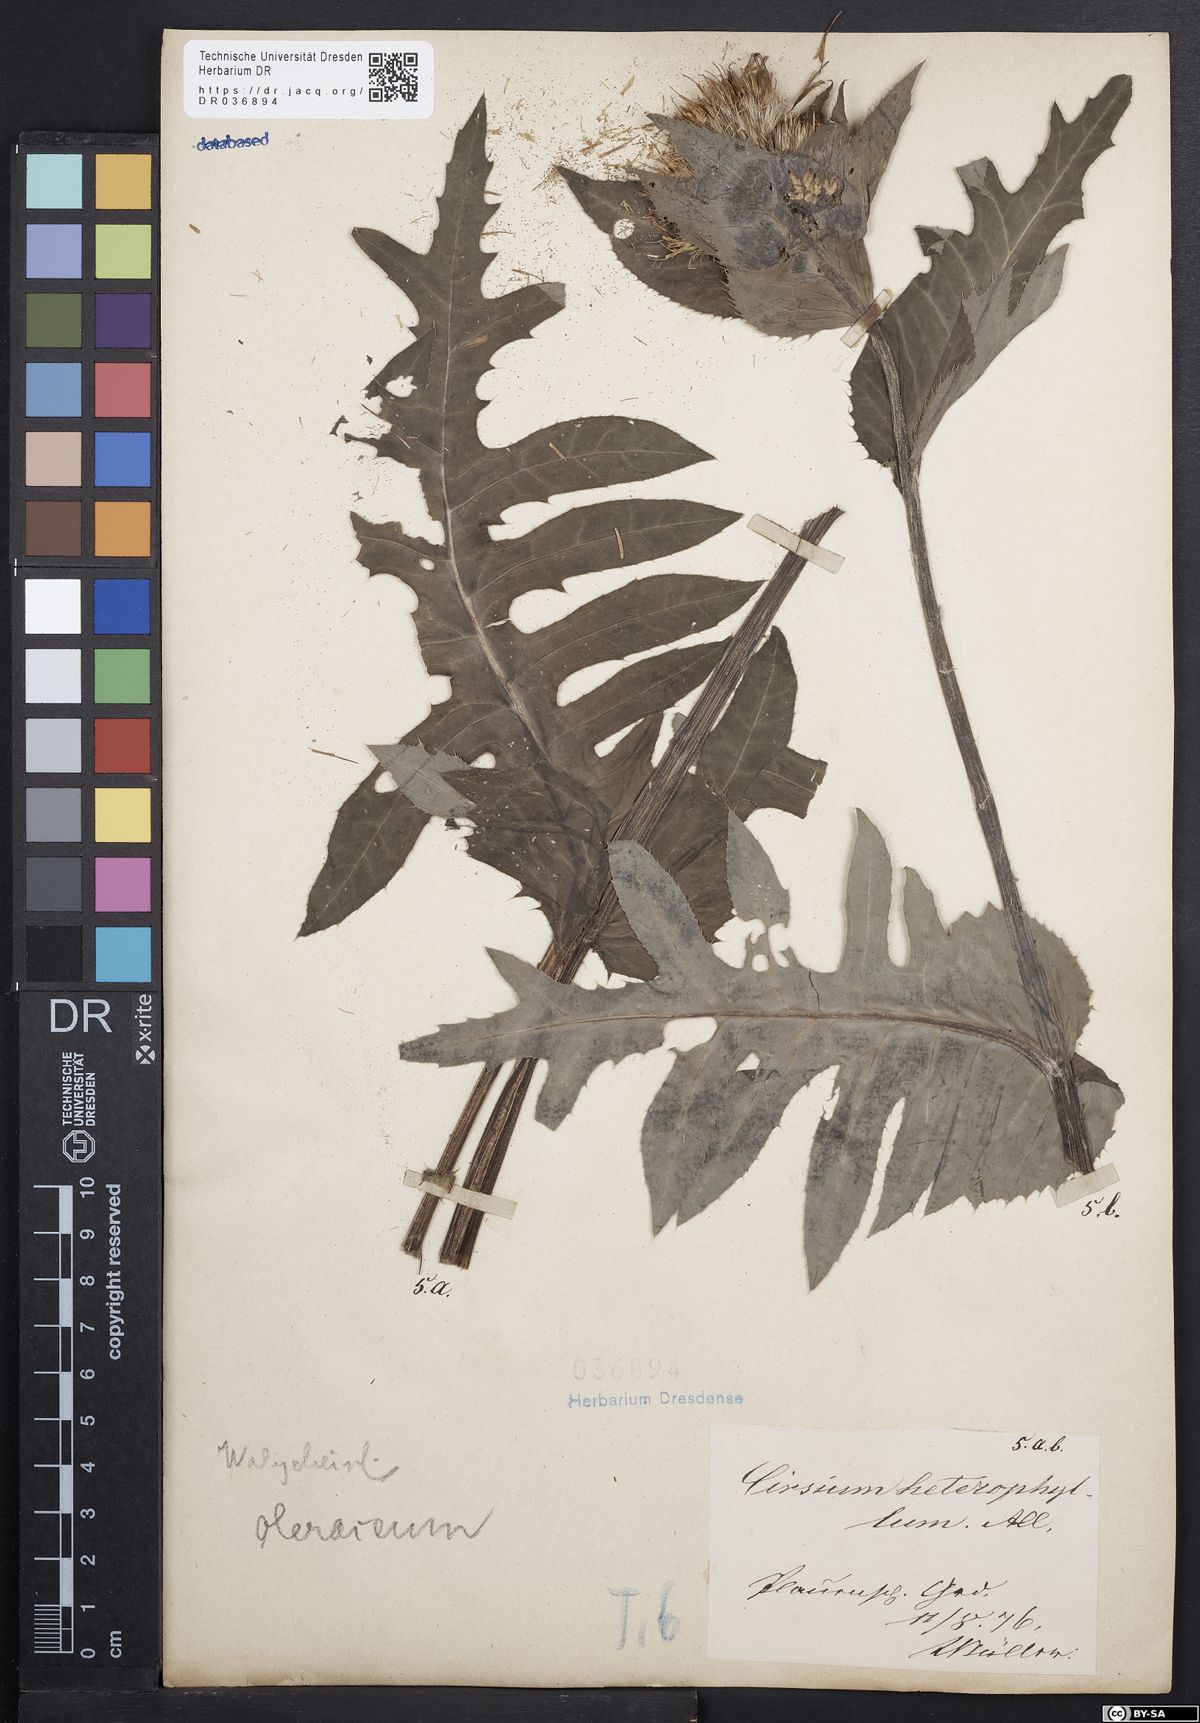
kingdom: Plantae
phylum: Tracheophyta
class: Magnoliopsida
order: Asterales
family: Asteraceae
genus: Cirsium
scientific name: Cirsium oleraceum
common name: Cabbage thistle
